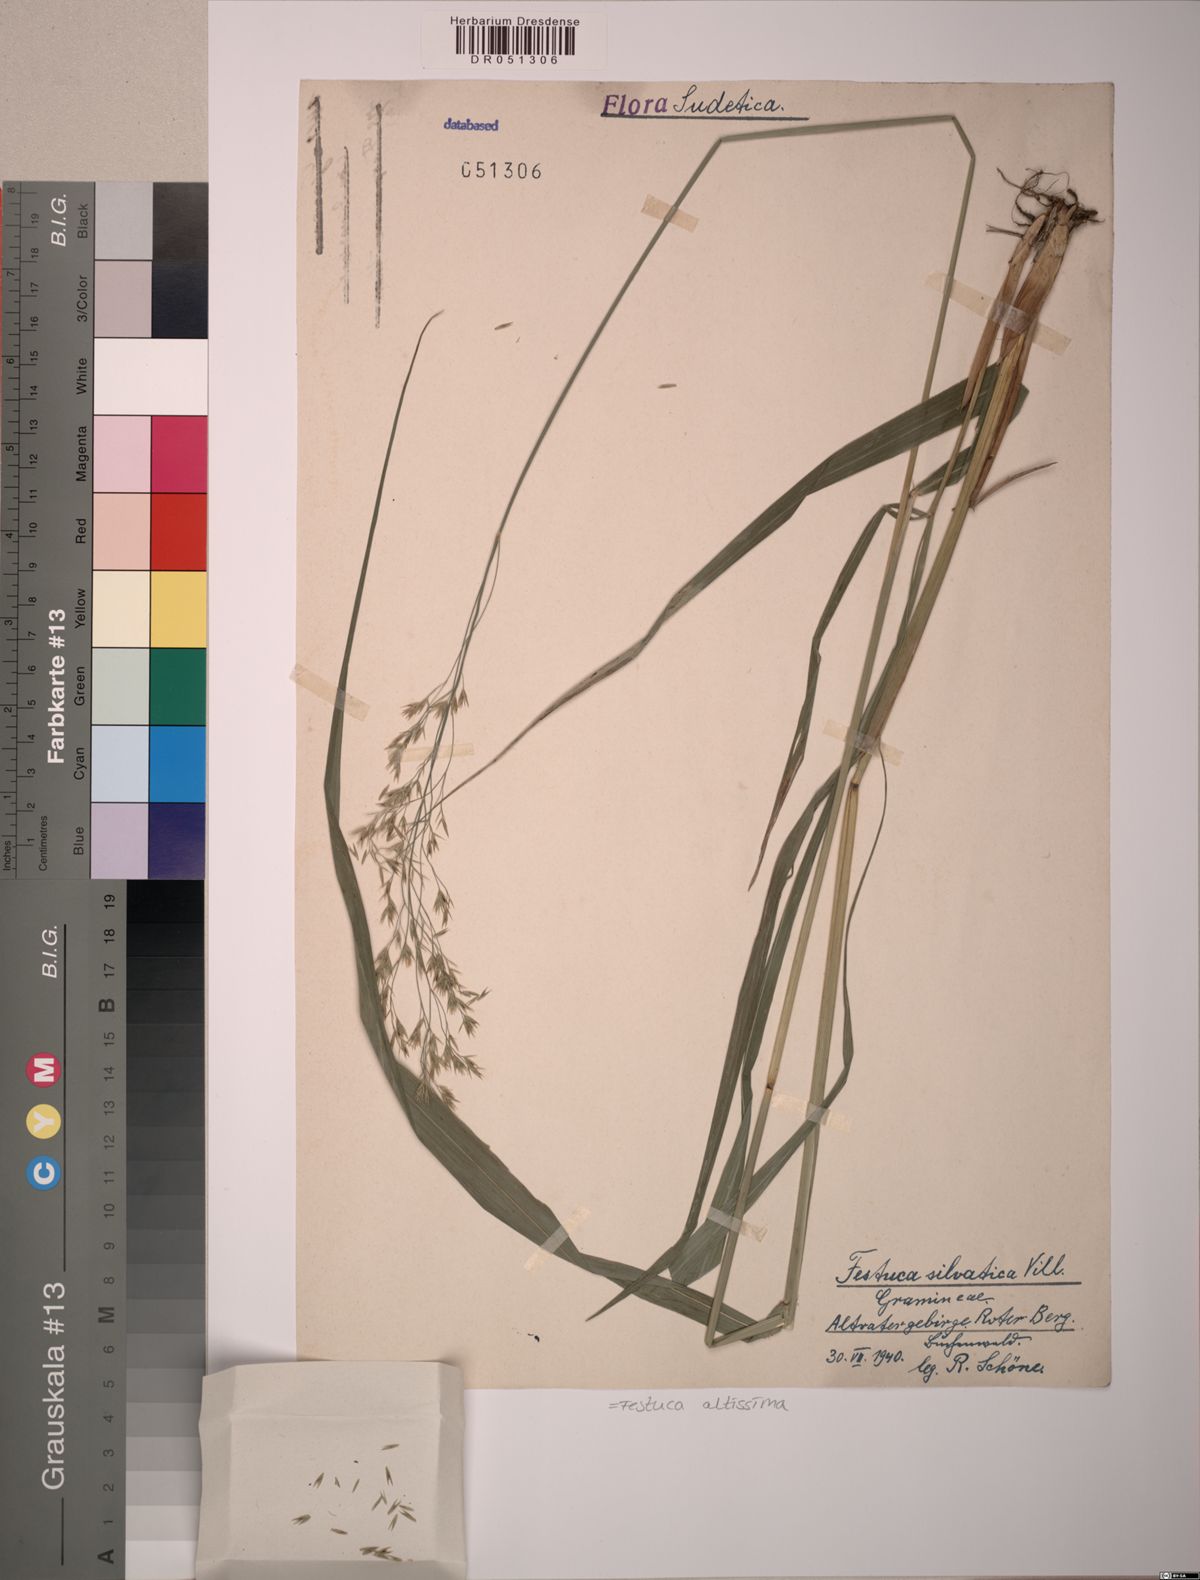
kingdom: Plantae
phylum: Tracheophyta
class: Liliopsida
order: Poales
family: Poaceae
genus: Festuca
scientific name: Festuca altissima
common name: Wood fescue
